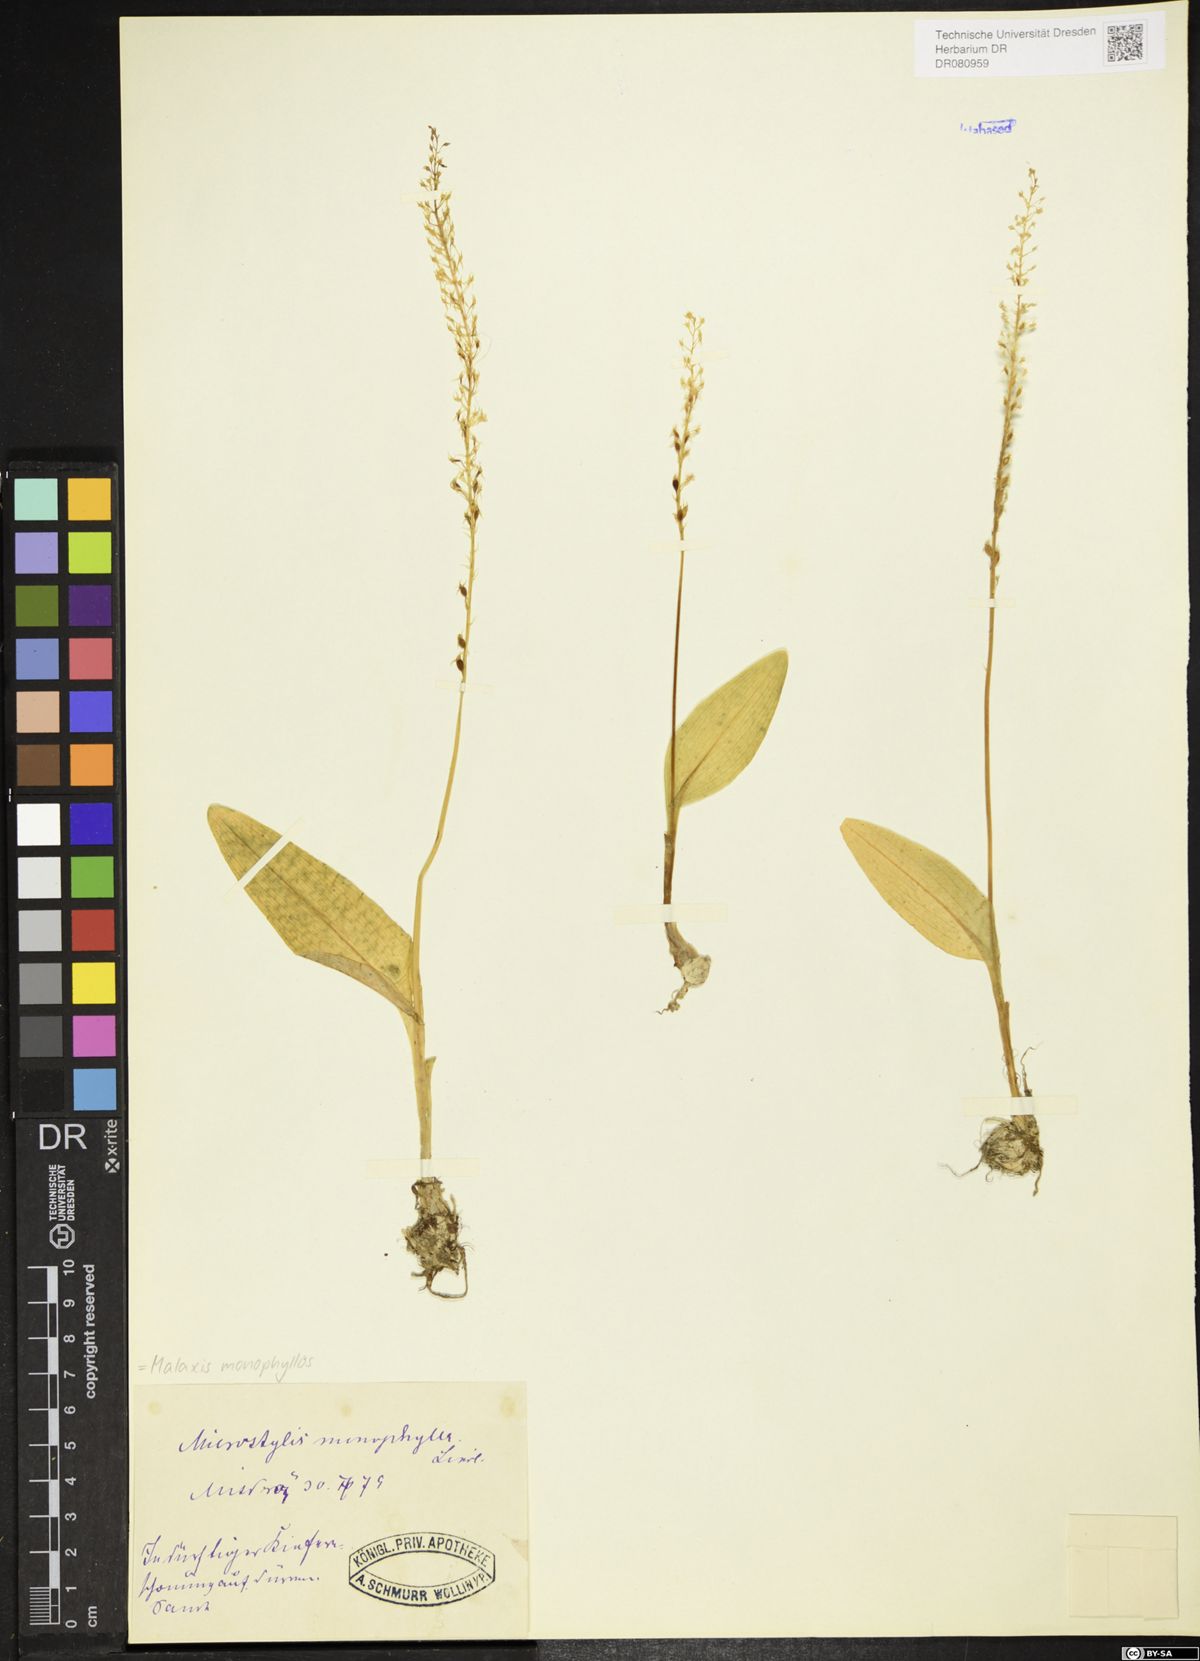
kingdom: Plantae
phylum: Tracheophyta
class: Liliopsida
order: Asparagales
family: Orchidaceae
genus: Malaxis
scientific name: Malaxis monophyllos
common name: White adder's-mouth
